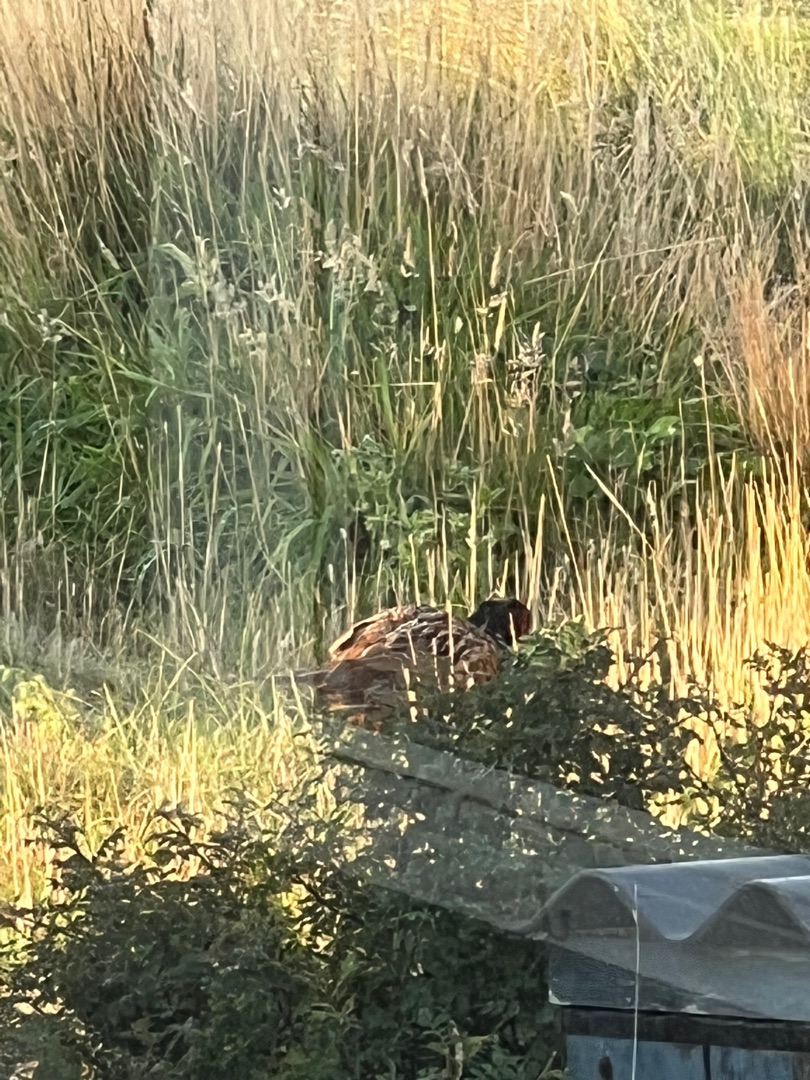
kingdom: Animalia
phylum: Chordata
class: Aves
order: Galliformes
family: Phasianidae
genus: Phasianus
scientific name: Phasianus colchicus
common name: Fasan
